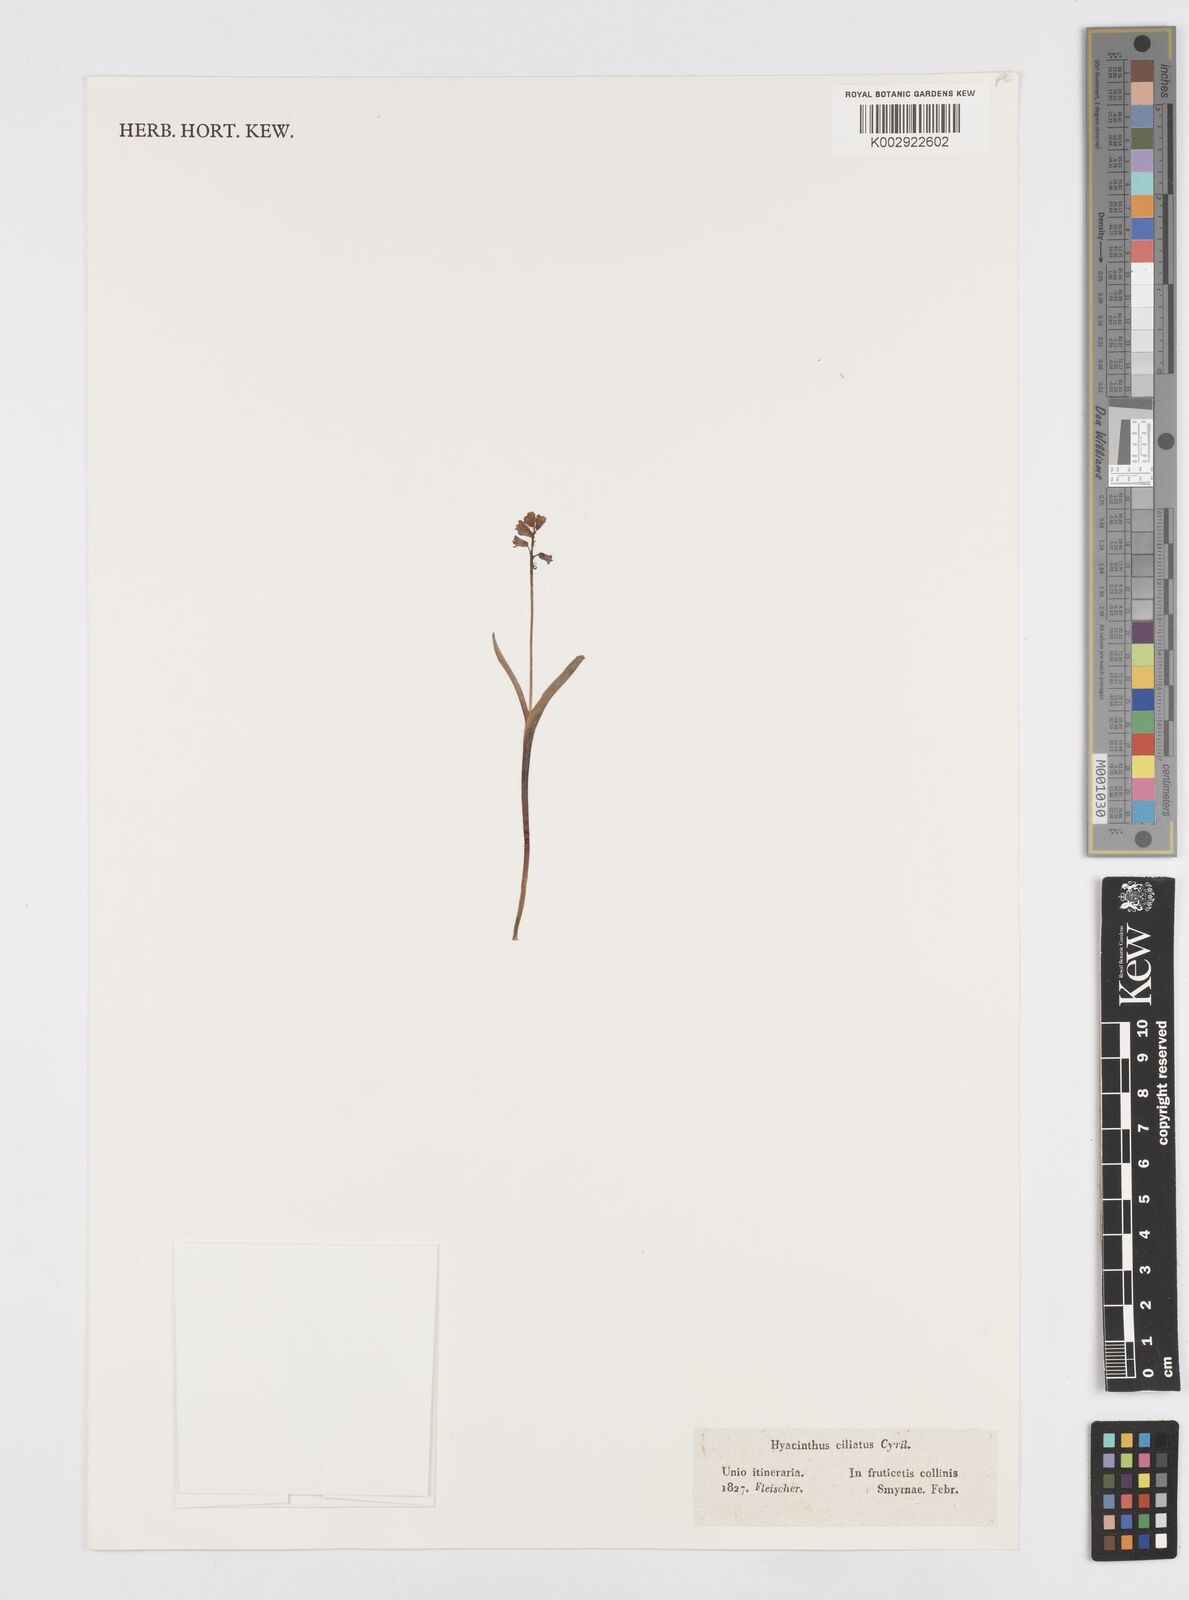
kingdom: Plantae
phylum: Tracheophyta
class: Liliopsida
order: Asparagales
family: Asparagaceae
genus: Hyacinthella
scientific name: Hyacinthella heldreichii
